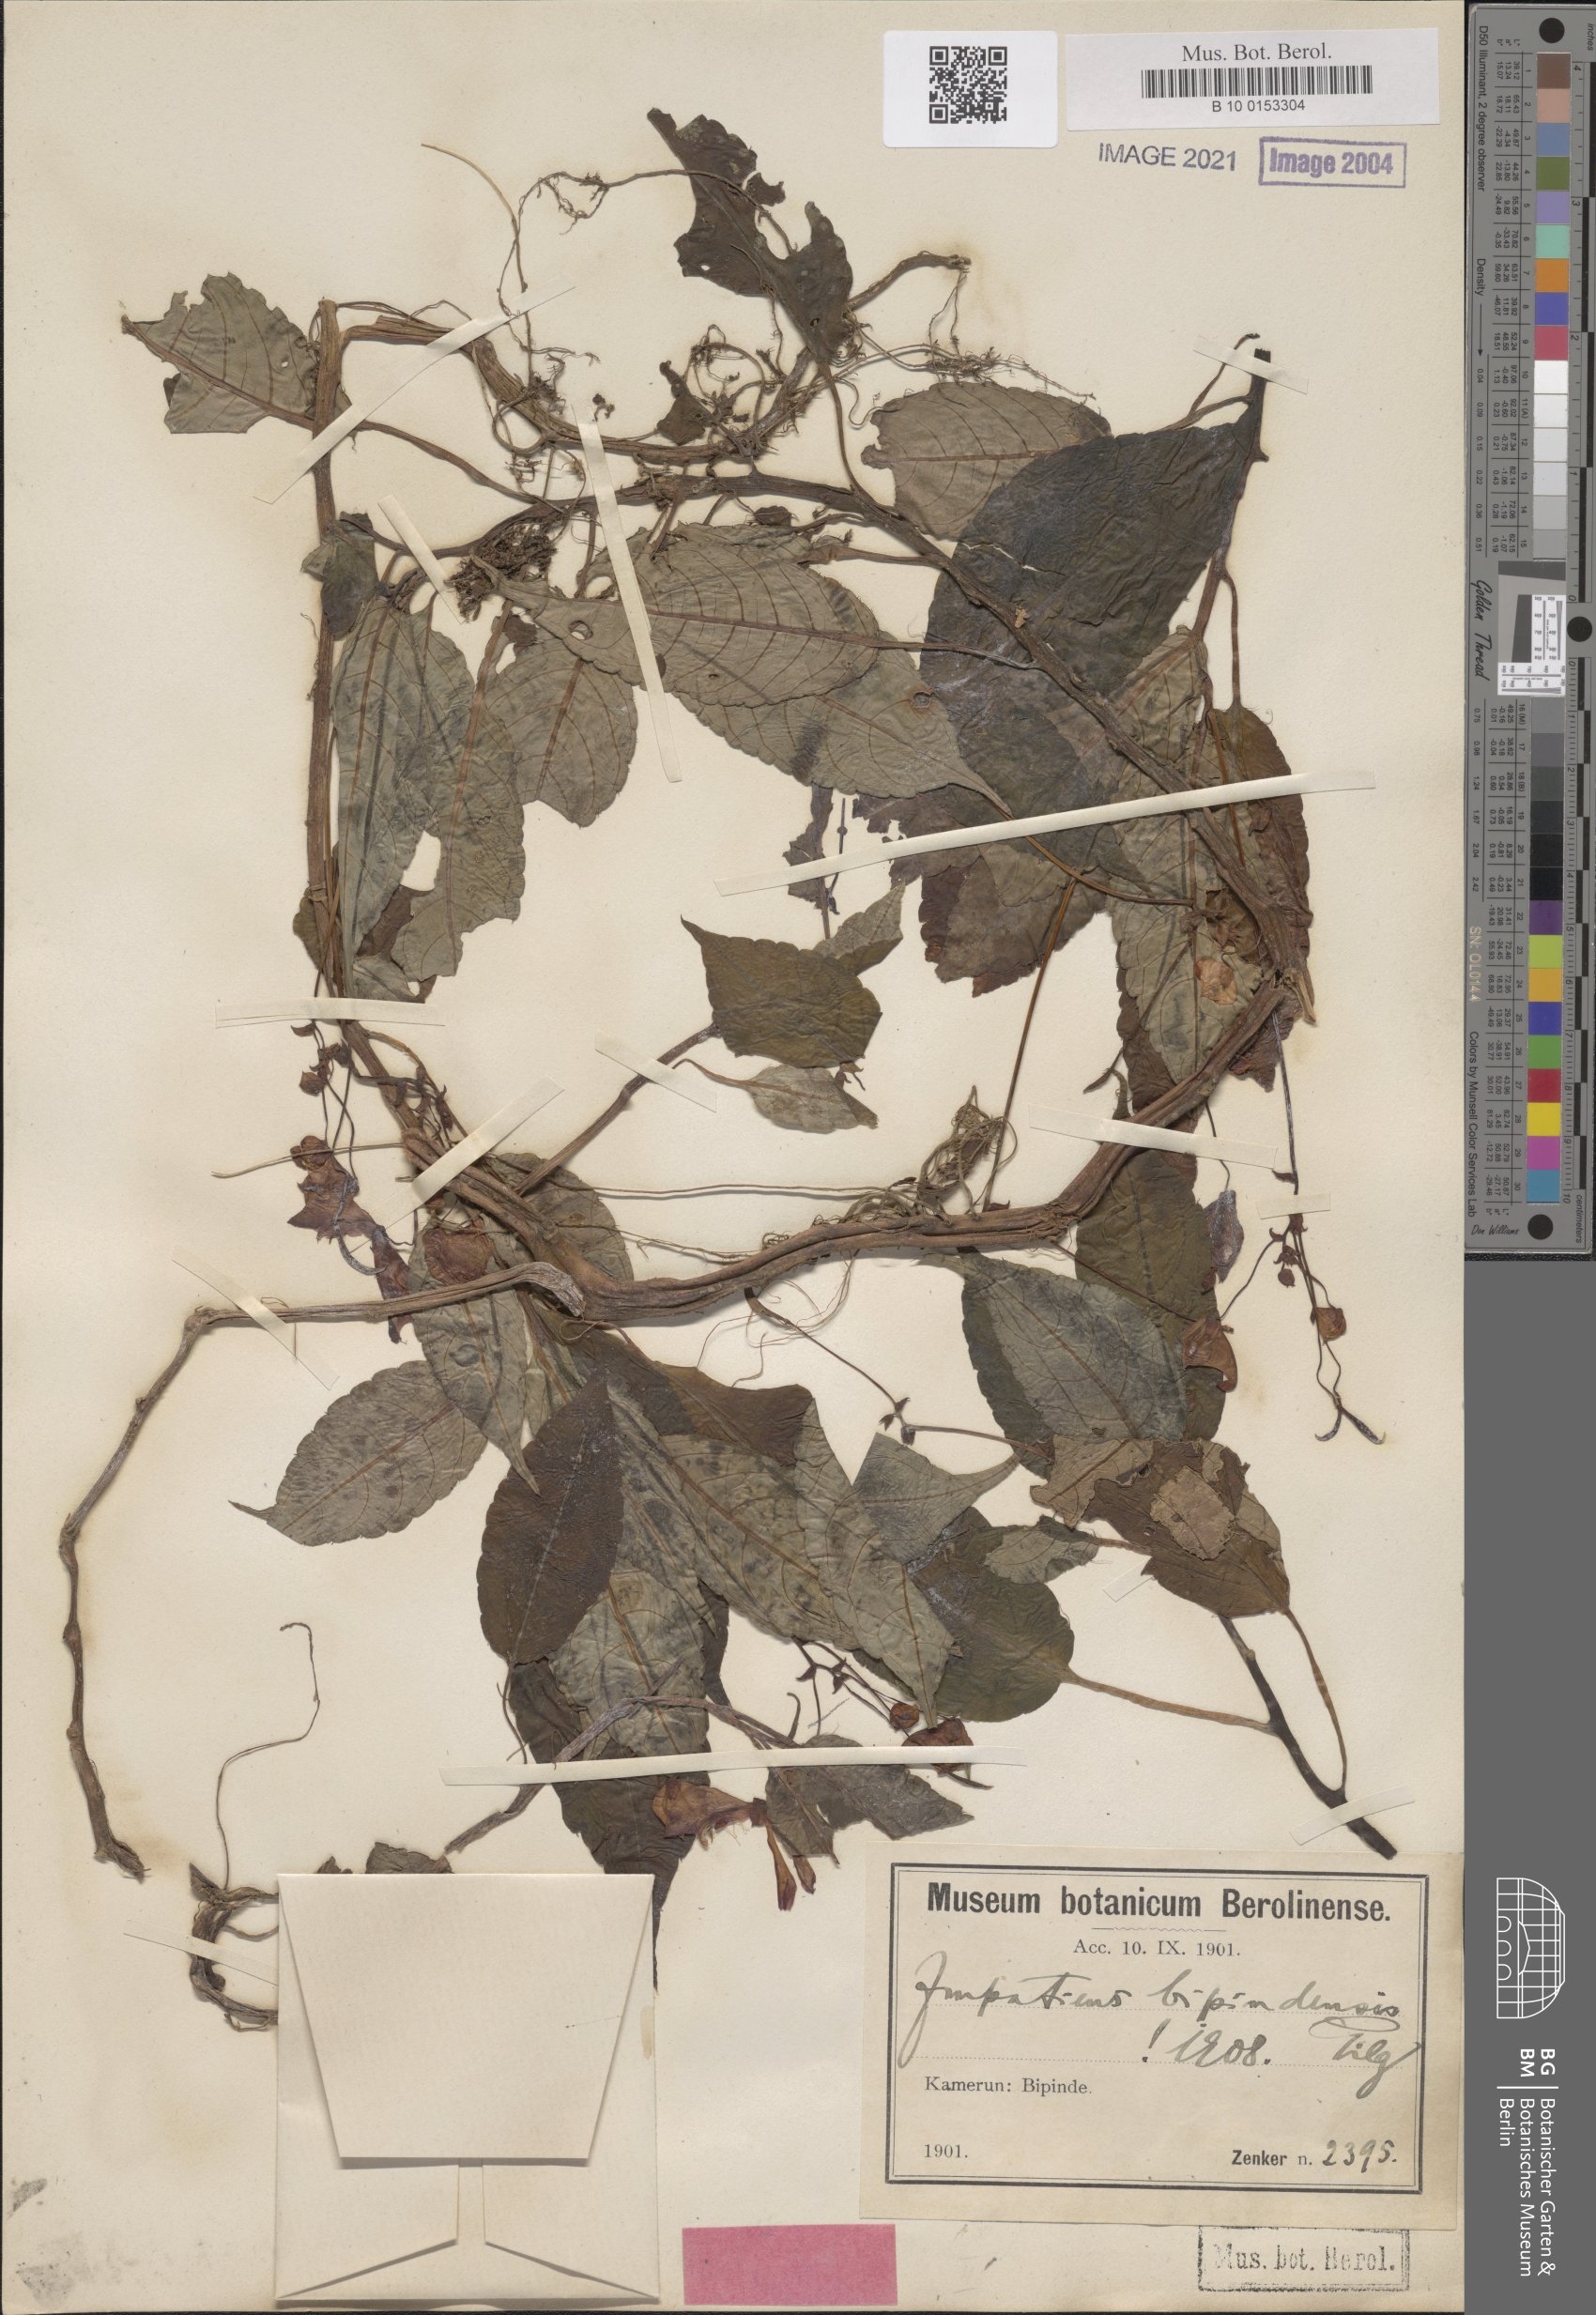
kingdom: Plantae
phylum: Tracheophyta
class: Magnoliopsida
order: Ericales
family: Balsaminaceae
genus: Impatiens
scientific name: Impatiens hians
